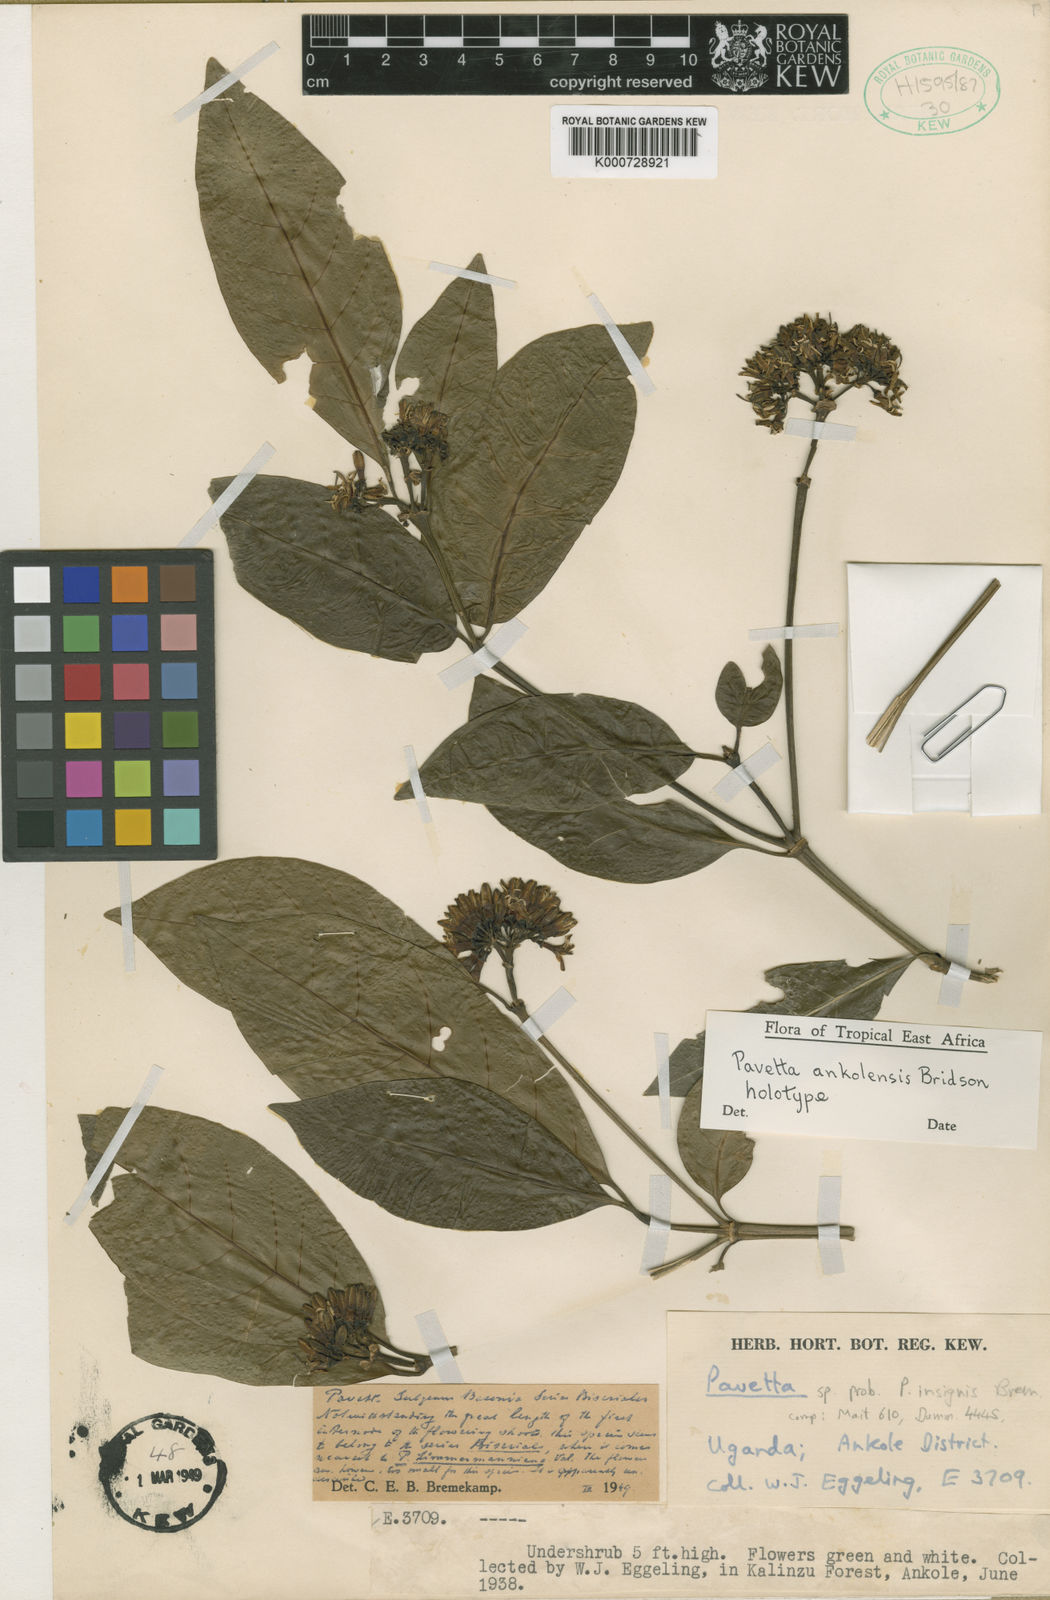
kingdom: Plantae
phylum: Tracheophyta
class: Magnoliopsida
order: Gentianales
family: Rubiaceae
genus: Pavetta
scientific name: Pavetta ankolensis
